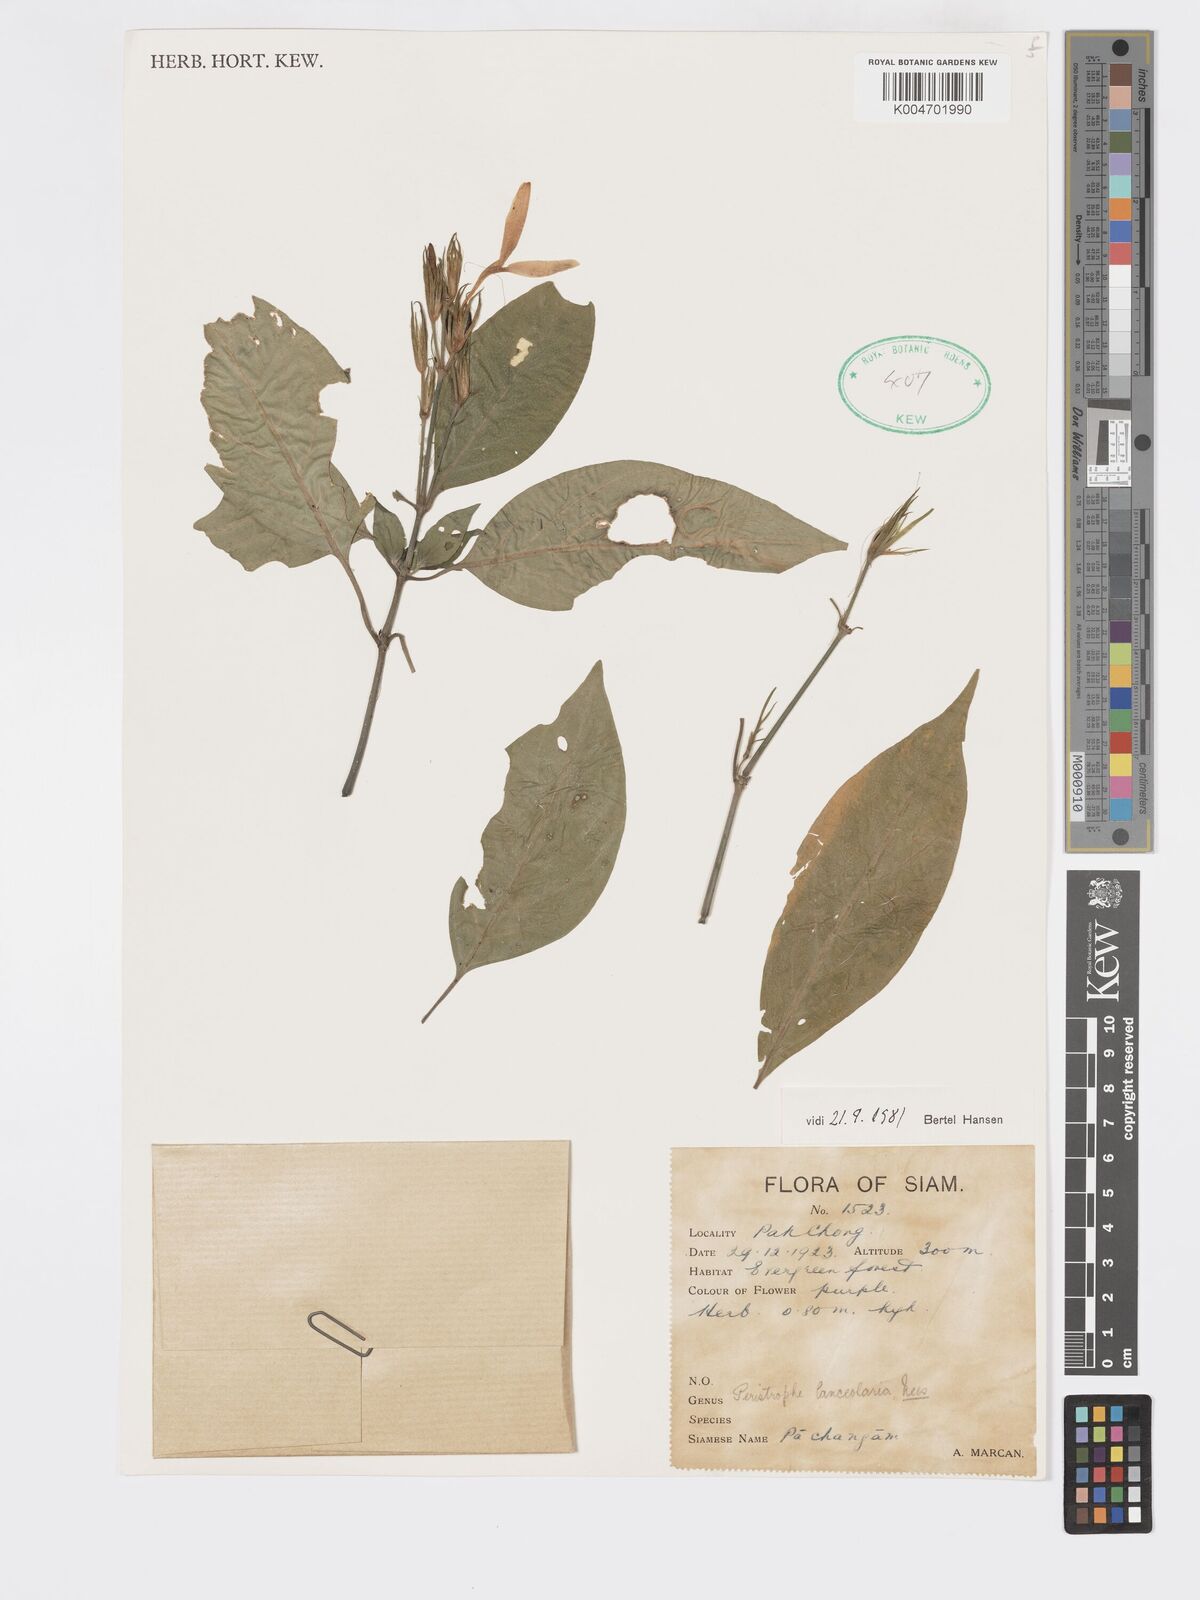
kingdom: Plantae
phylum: Tracheophyta
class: Magnoliopsida
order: Lamiales
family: Acanthaceae
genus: Dicliptera
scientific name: Dicliptera lanceolaria
